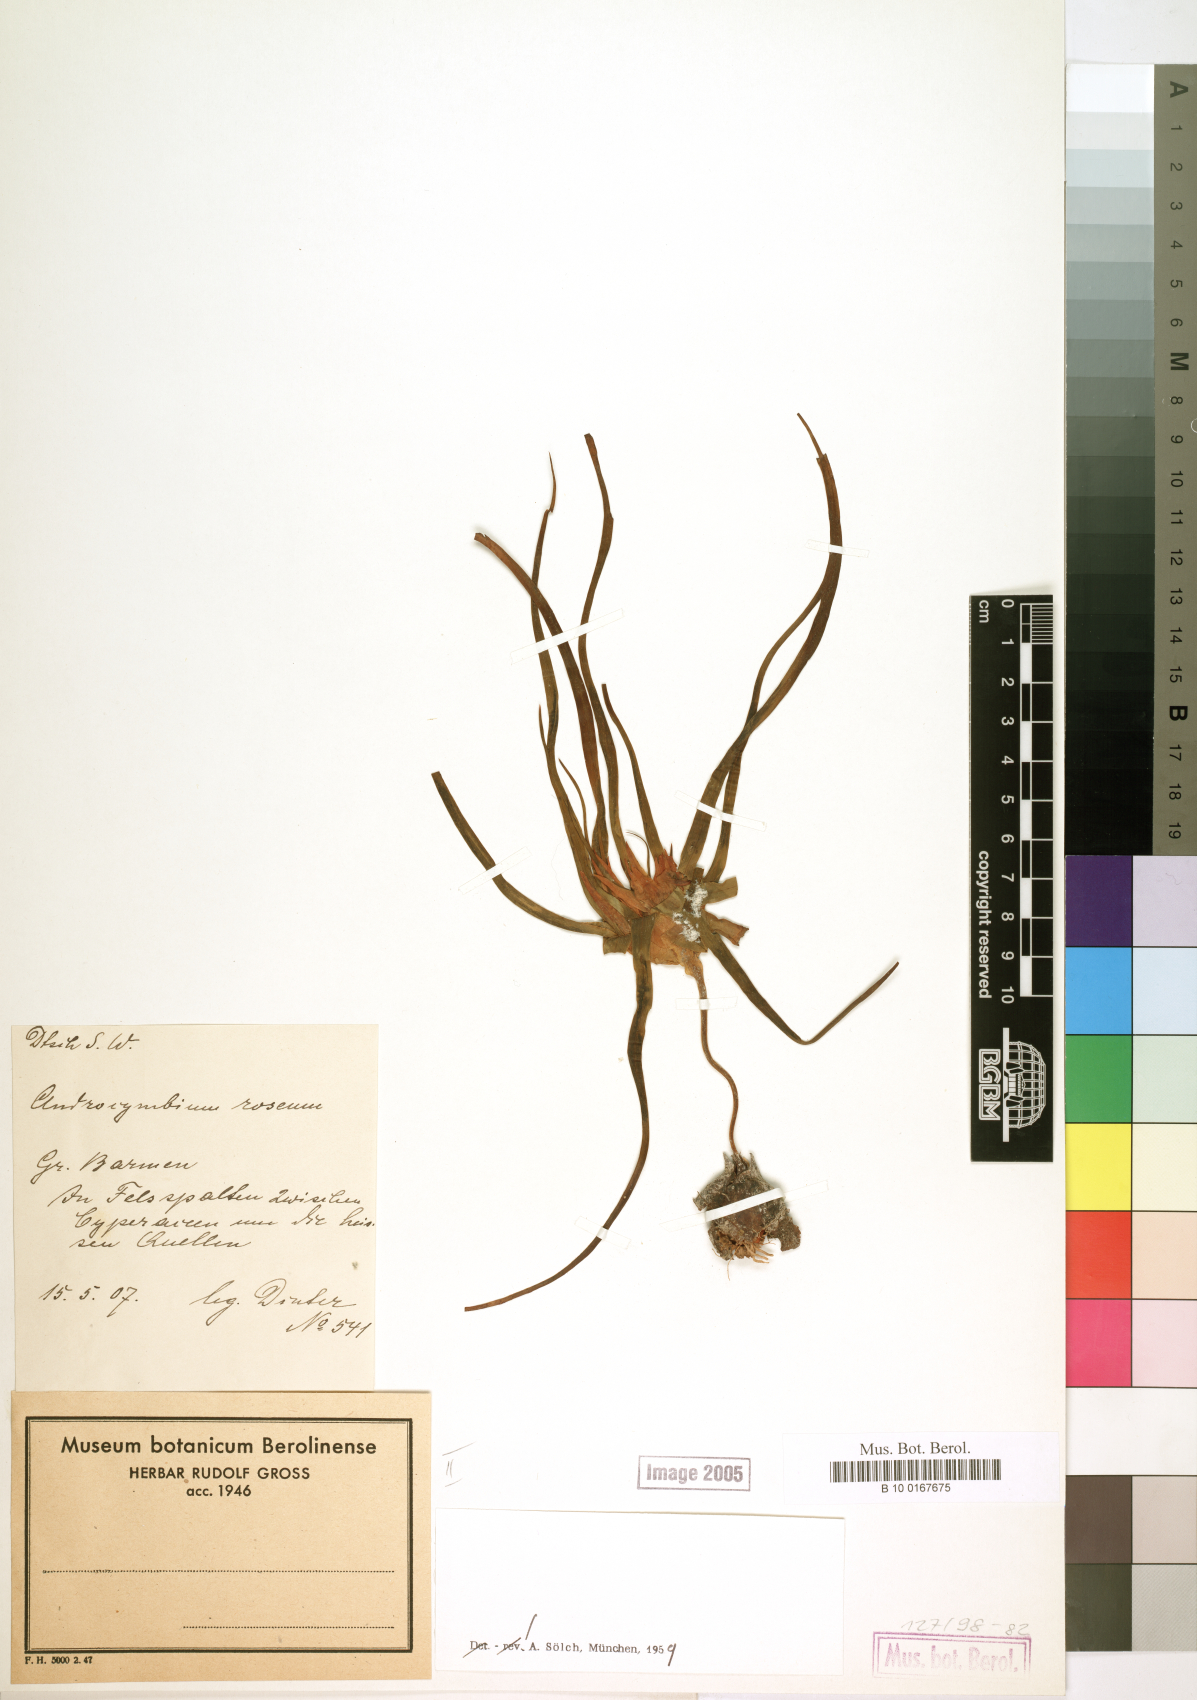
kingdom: Plantae
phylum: Tracheophyta
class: Liliopsida
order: Liliales
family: Colchicaceae
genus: Colchicum
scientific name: Colchicum roseum
